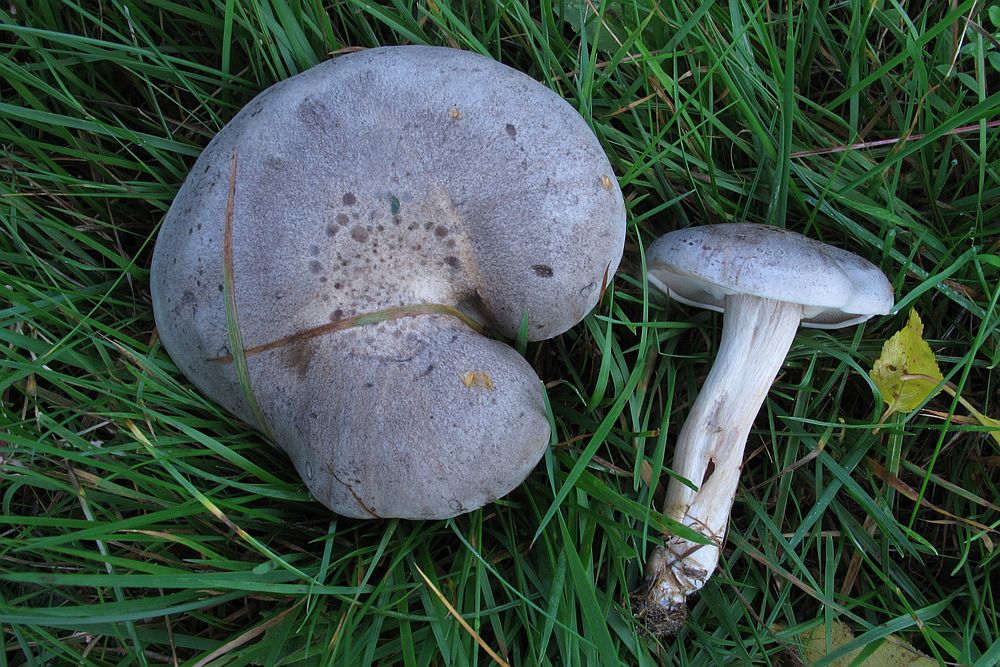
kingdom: Fungi
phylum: Basidiomycota
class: Agaricomycetes
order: Agaricales
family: Tricholomataceae
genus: Lepista
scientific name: Lepista panaeolus
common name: marmoreret hekseringshat
